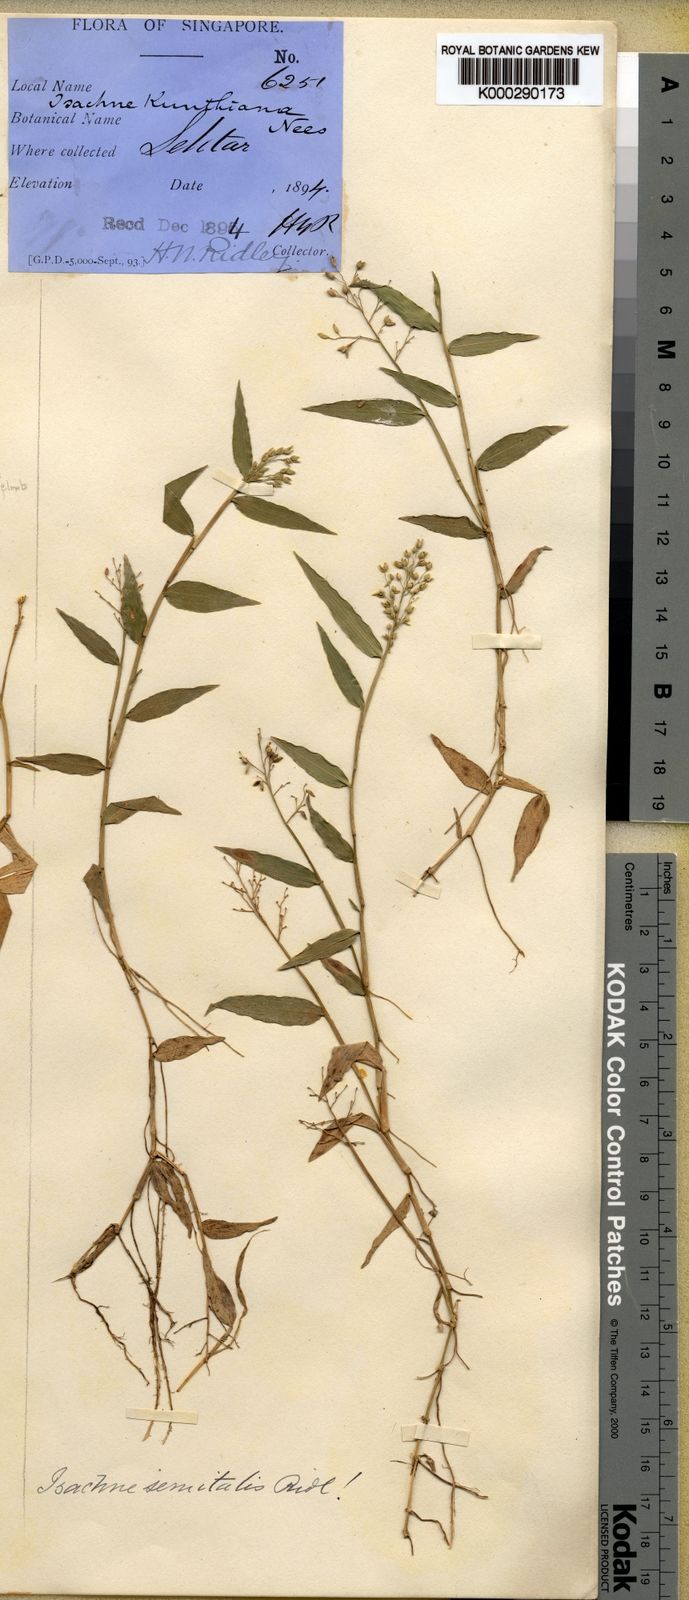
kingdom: Plantae
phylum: Tracheophyta
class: Liliopsida
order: Poales
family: Poaceae
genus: Isachne
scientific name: Isachne kunthiana
